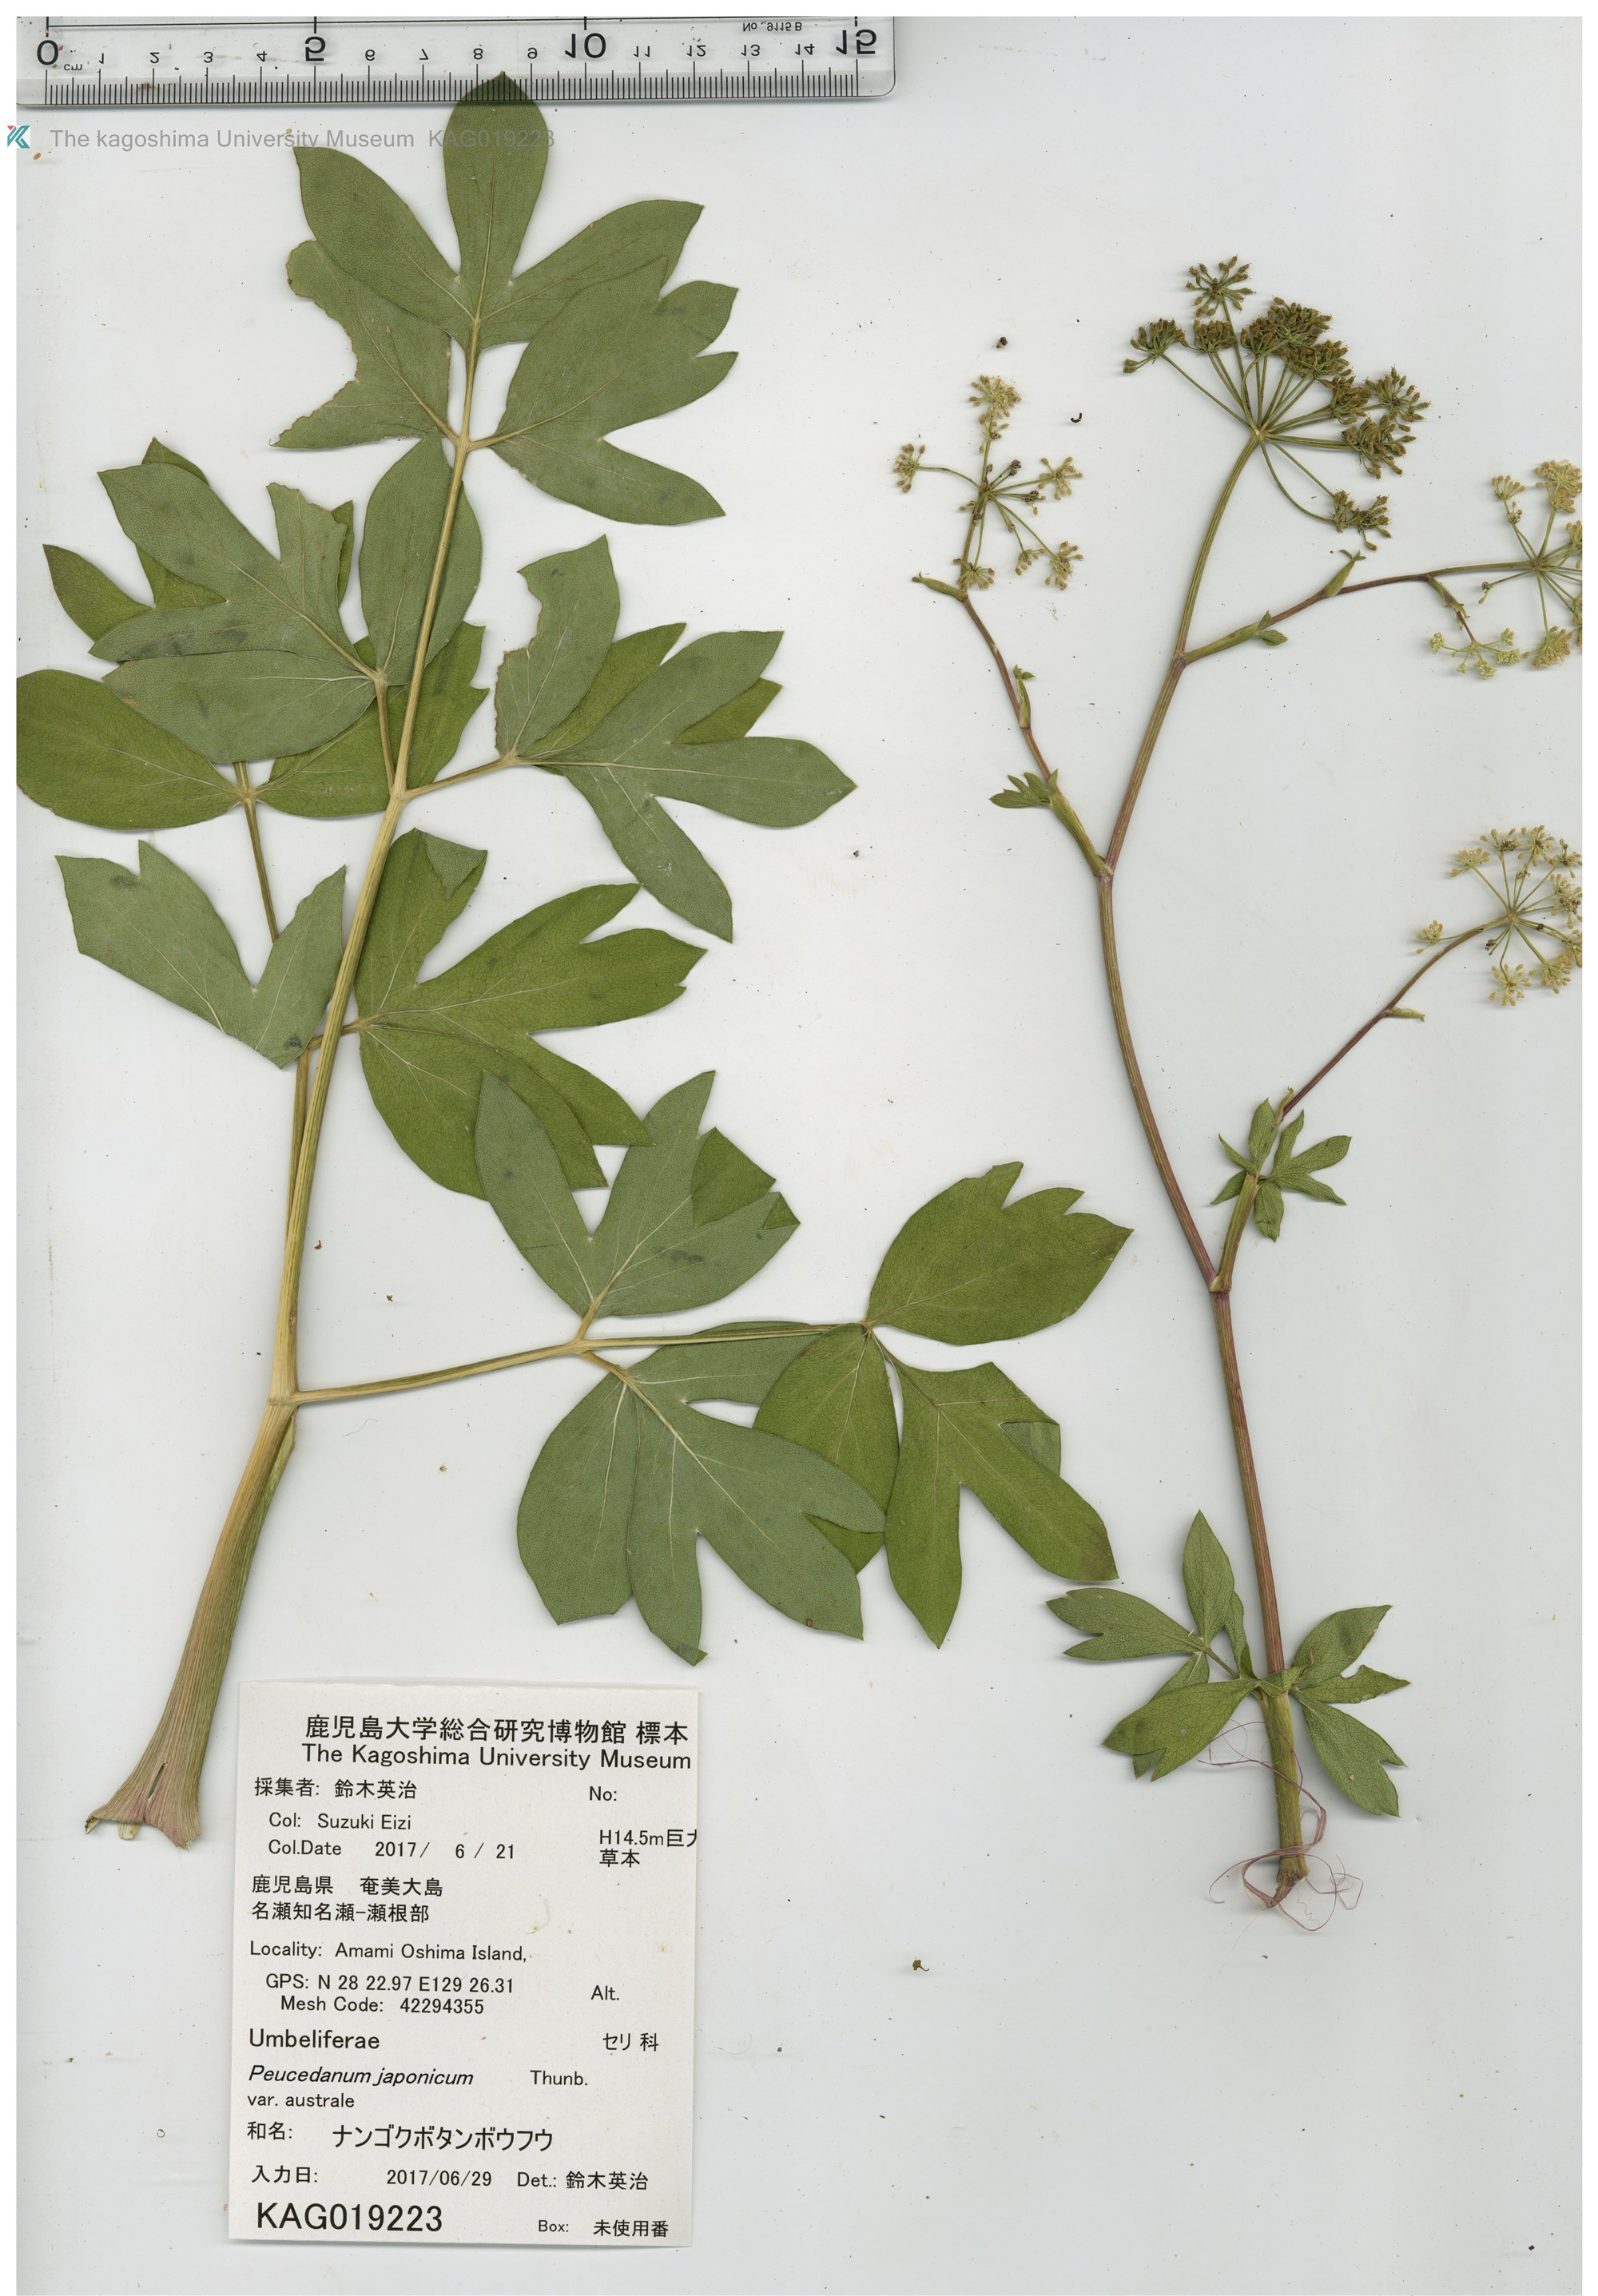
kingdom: Plantae
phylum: Tracheophyta
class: Magnoliopsida
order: Apiales
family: Apiaceae
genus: Peucedanum
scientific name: Peucedanum japonicum
